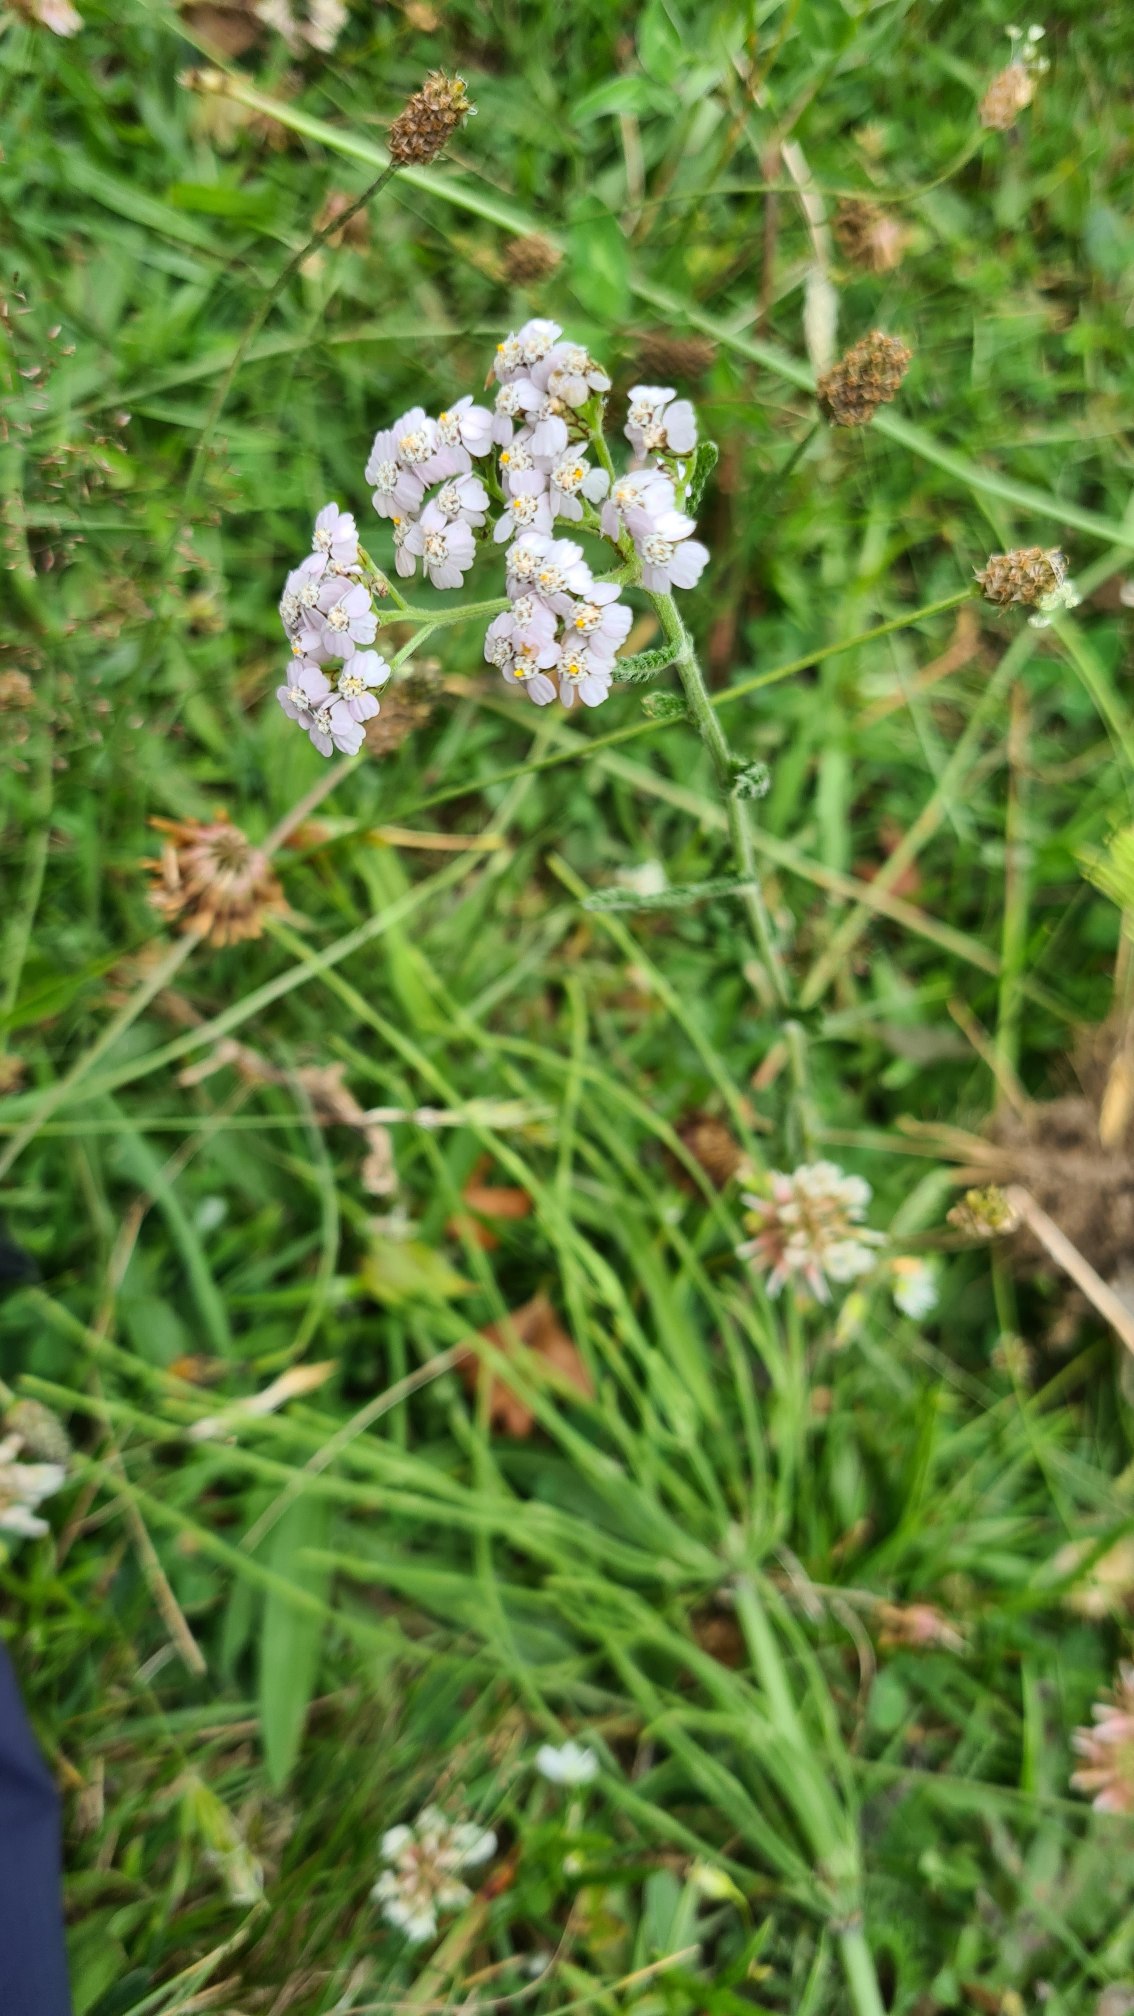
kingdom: Plantae
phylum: Tracheophyta
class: Magnoliopsida
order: Asterales
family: Asteraceae
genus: Achillea
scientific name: Achillea millefolium
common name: Almindelig røllike
